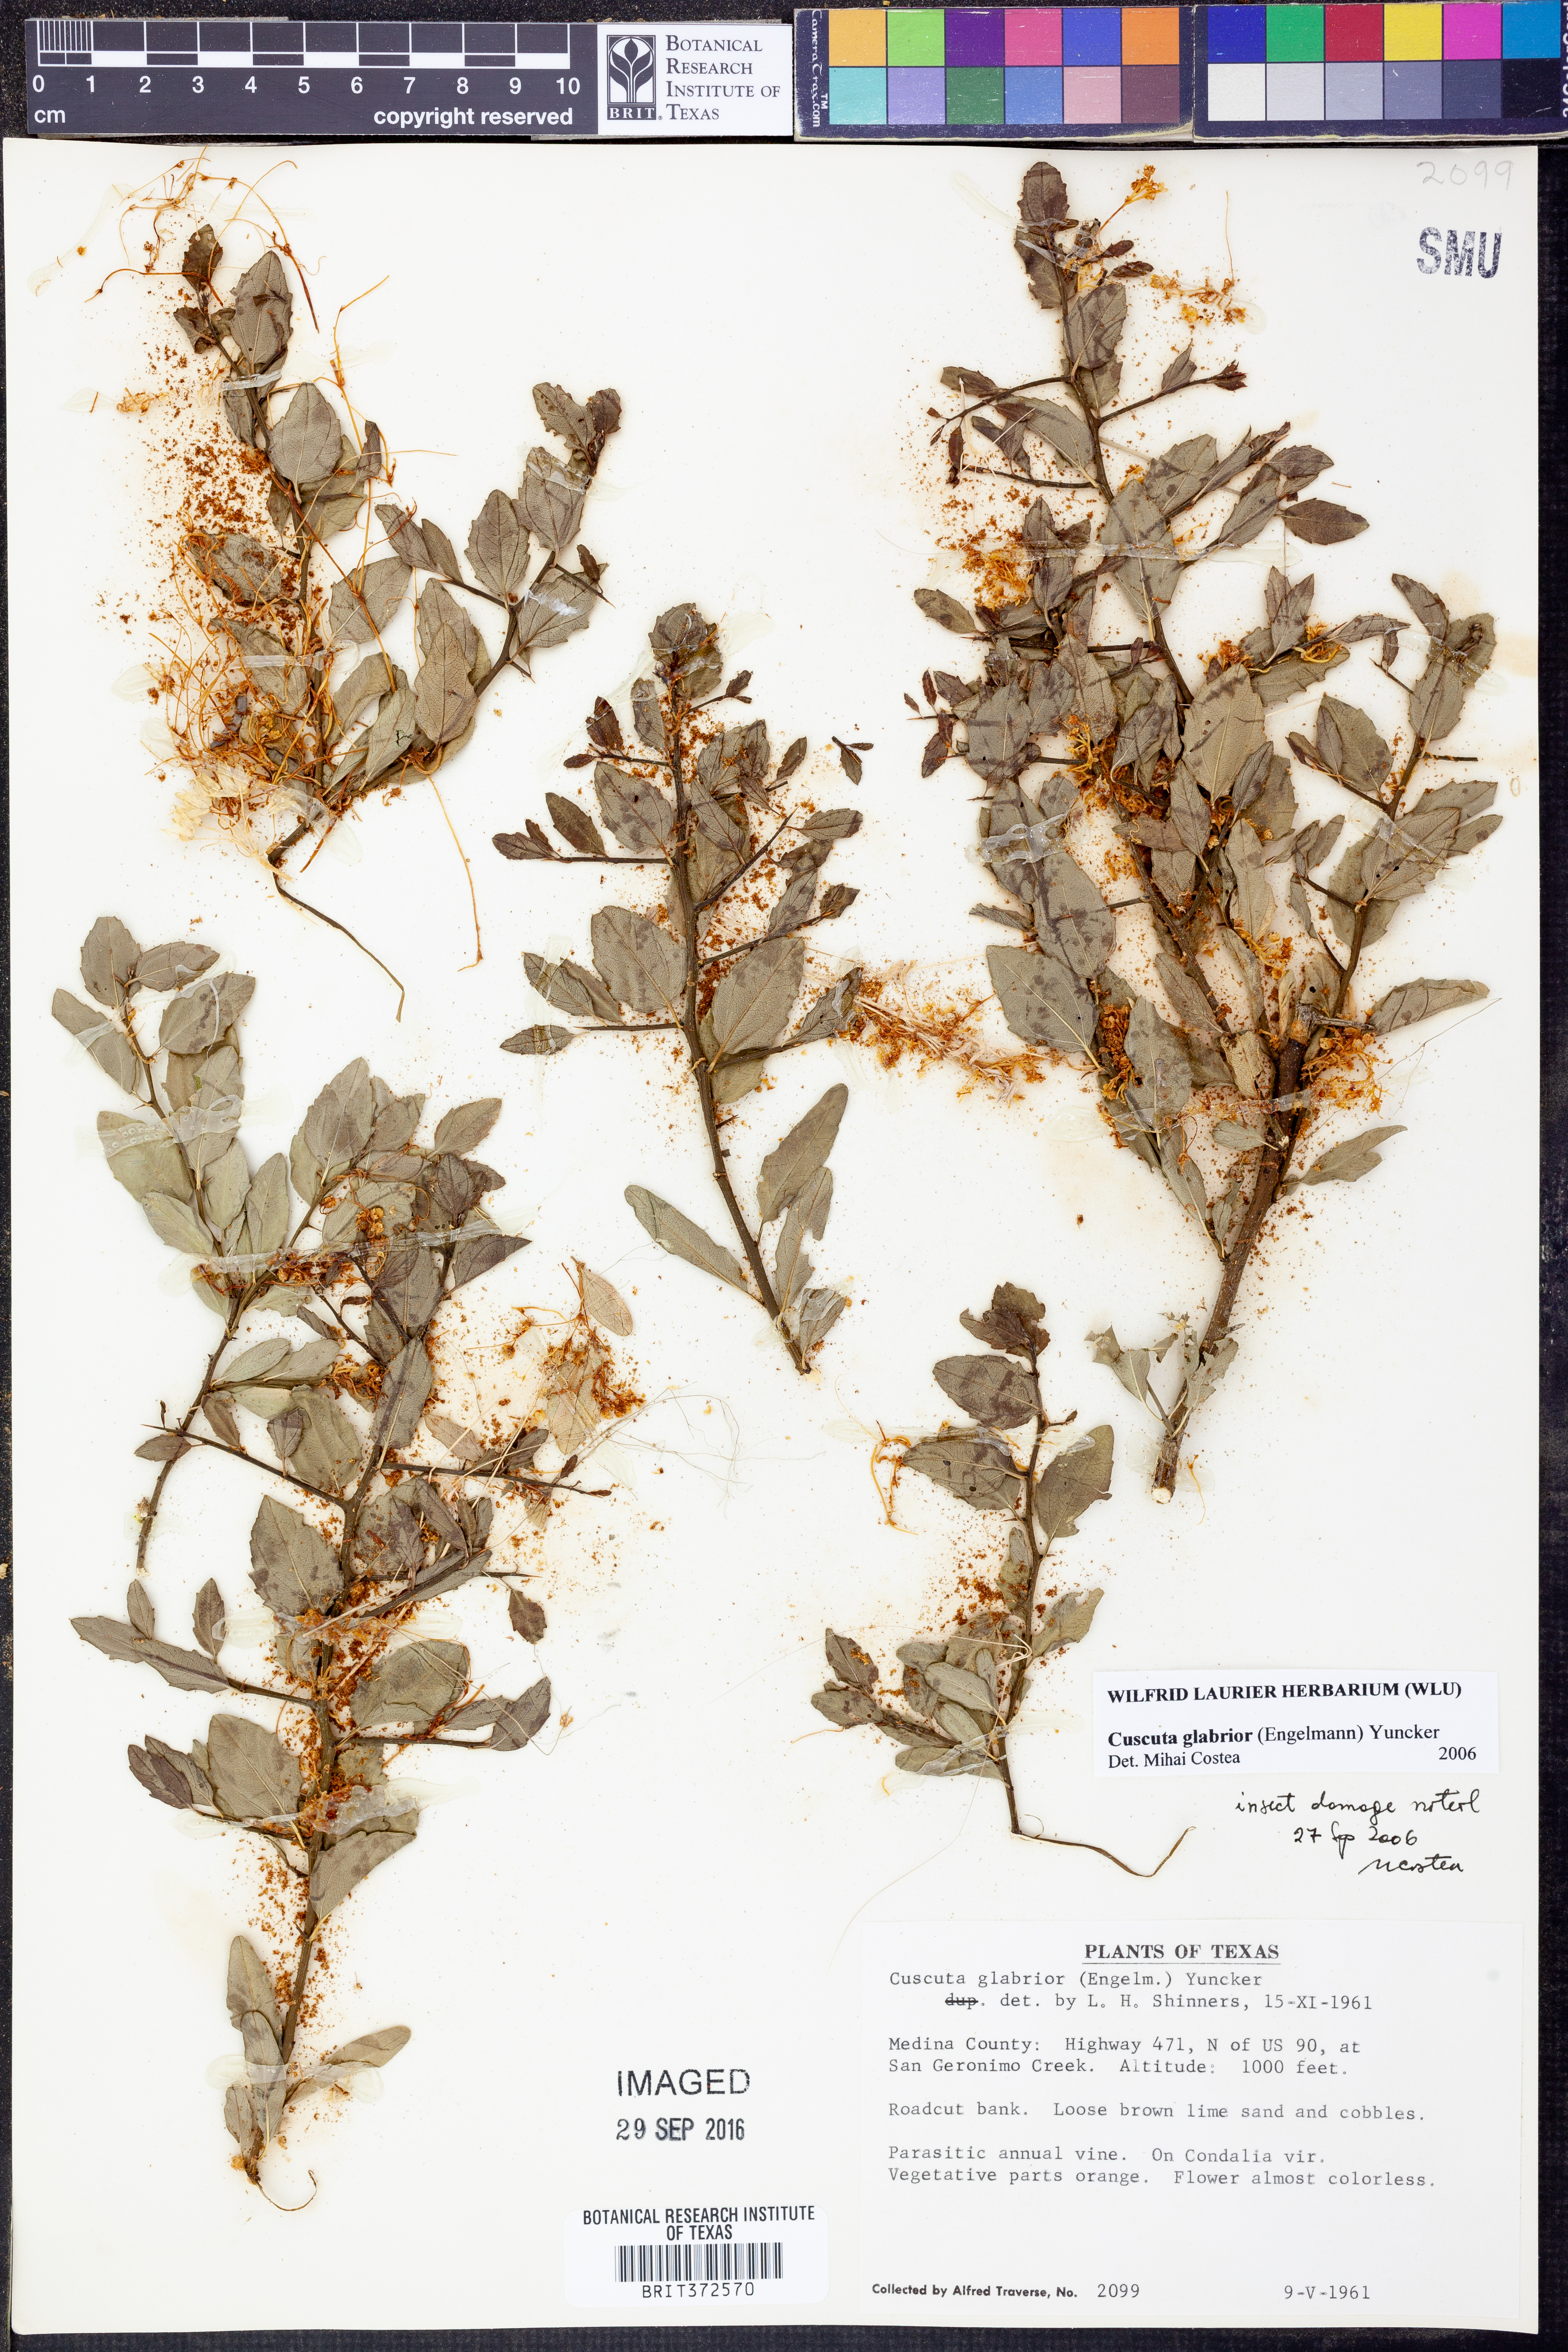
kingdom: Plantae
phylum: Tracheophyta
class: Magnoliopsida
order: Solanales
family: Convolvulaceae
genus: Cuscuta
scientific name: Cuscuta glabrior
